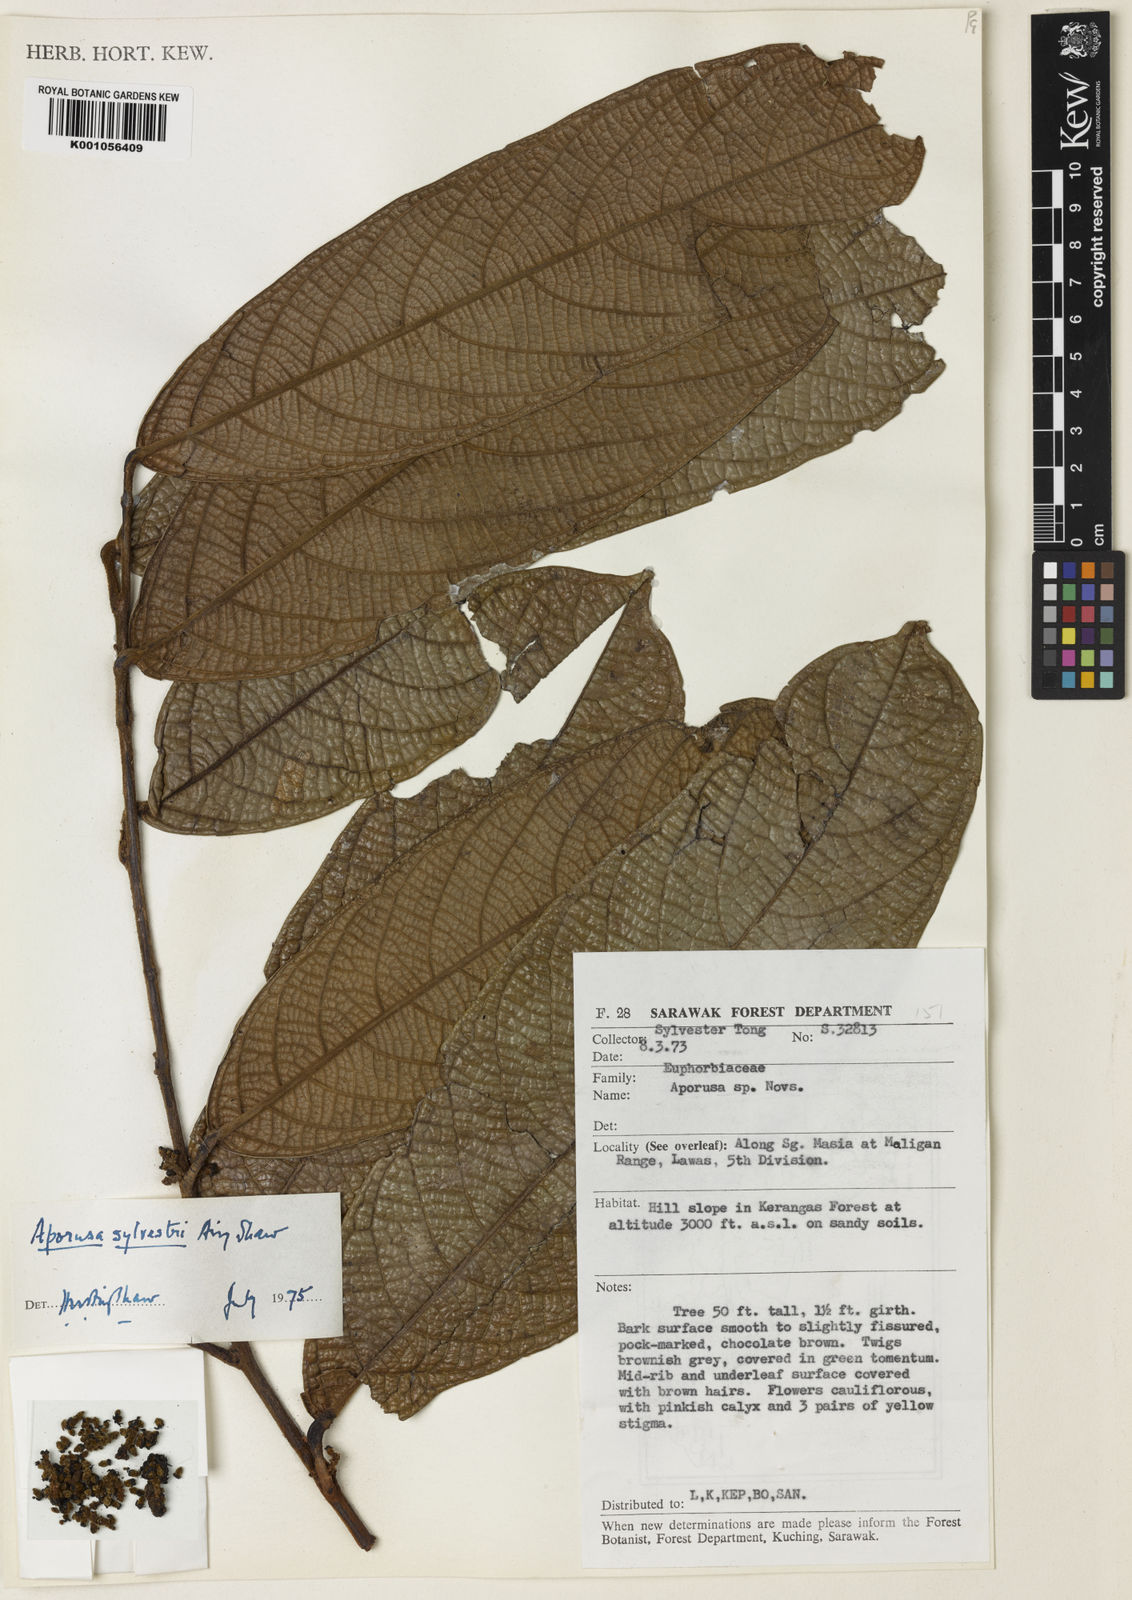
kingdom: Plantae
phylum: Tracheophyta
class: Magnoliopsida
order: Malpighiales
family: Phyllanthaceae
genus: Aporosa
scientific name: Aporosa sylvestri
